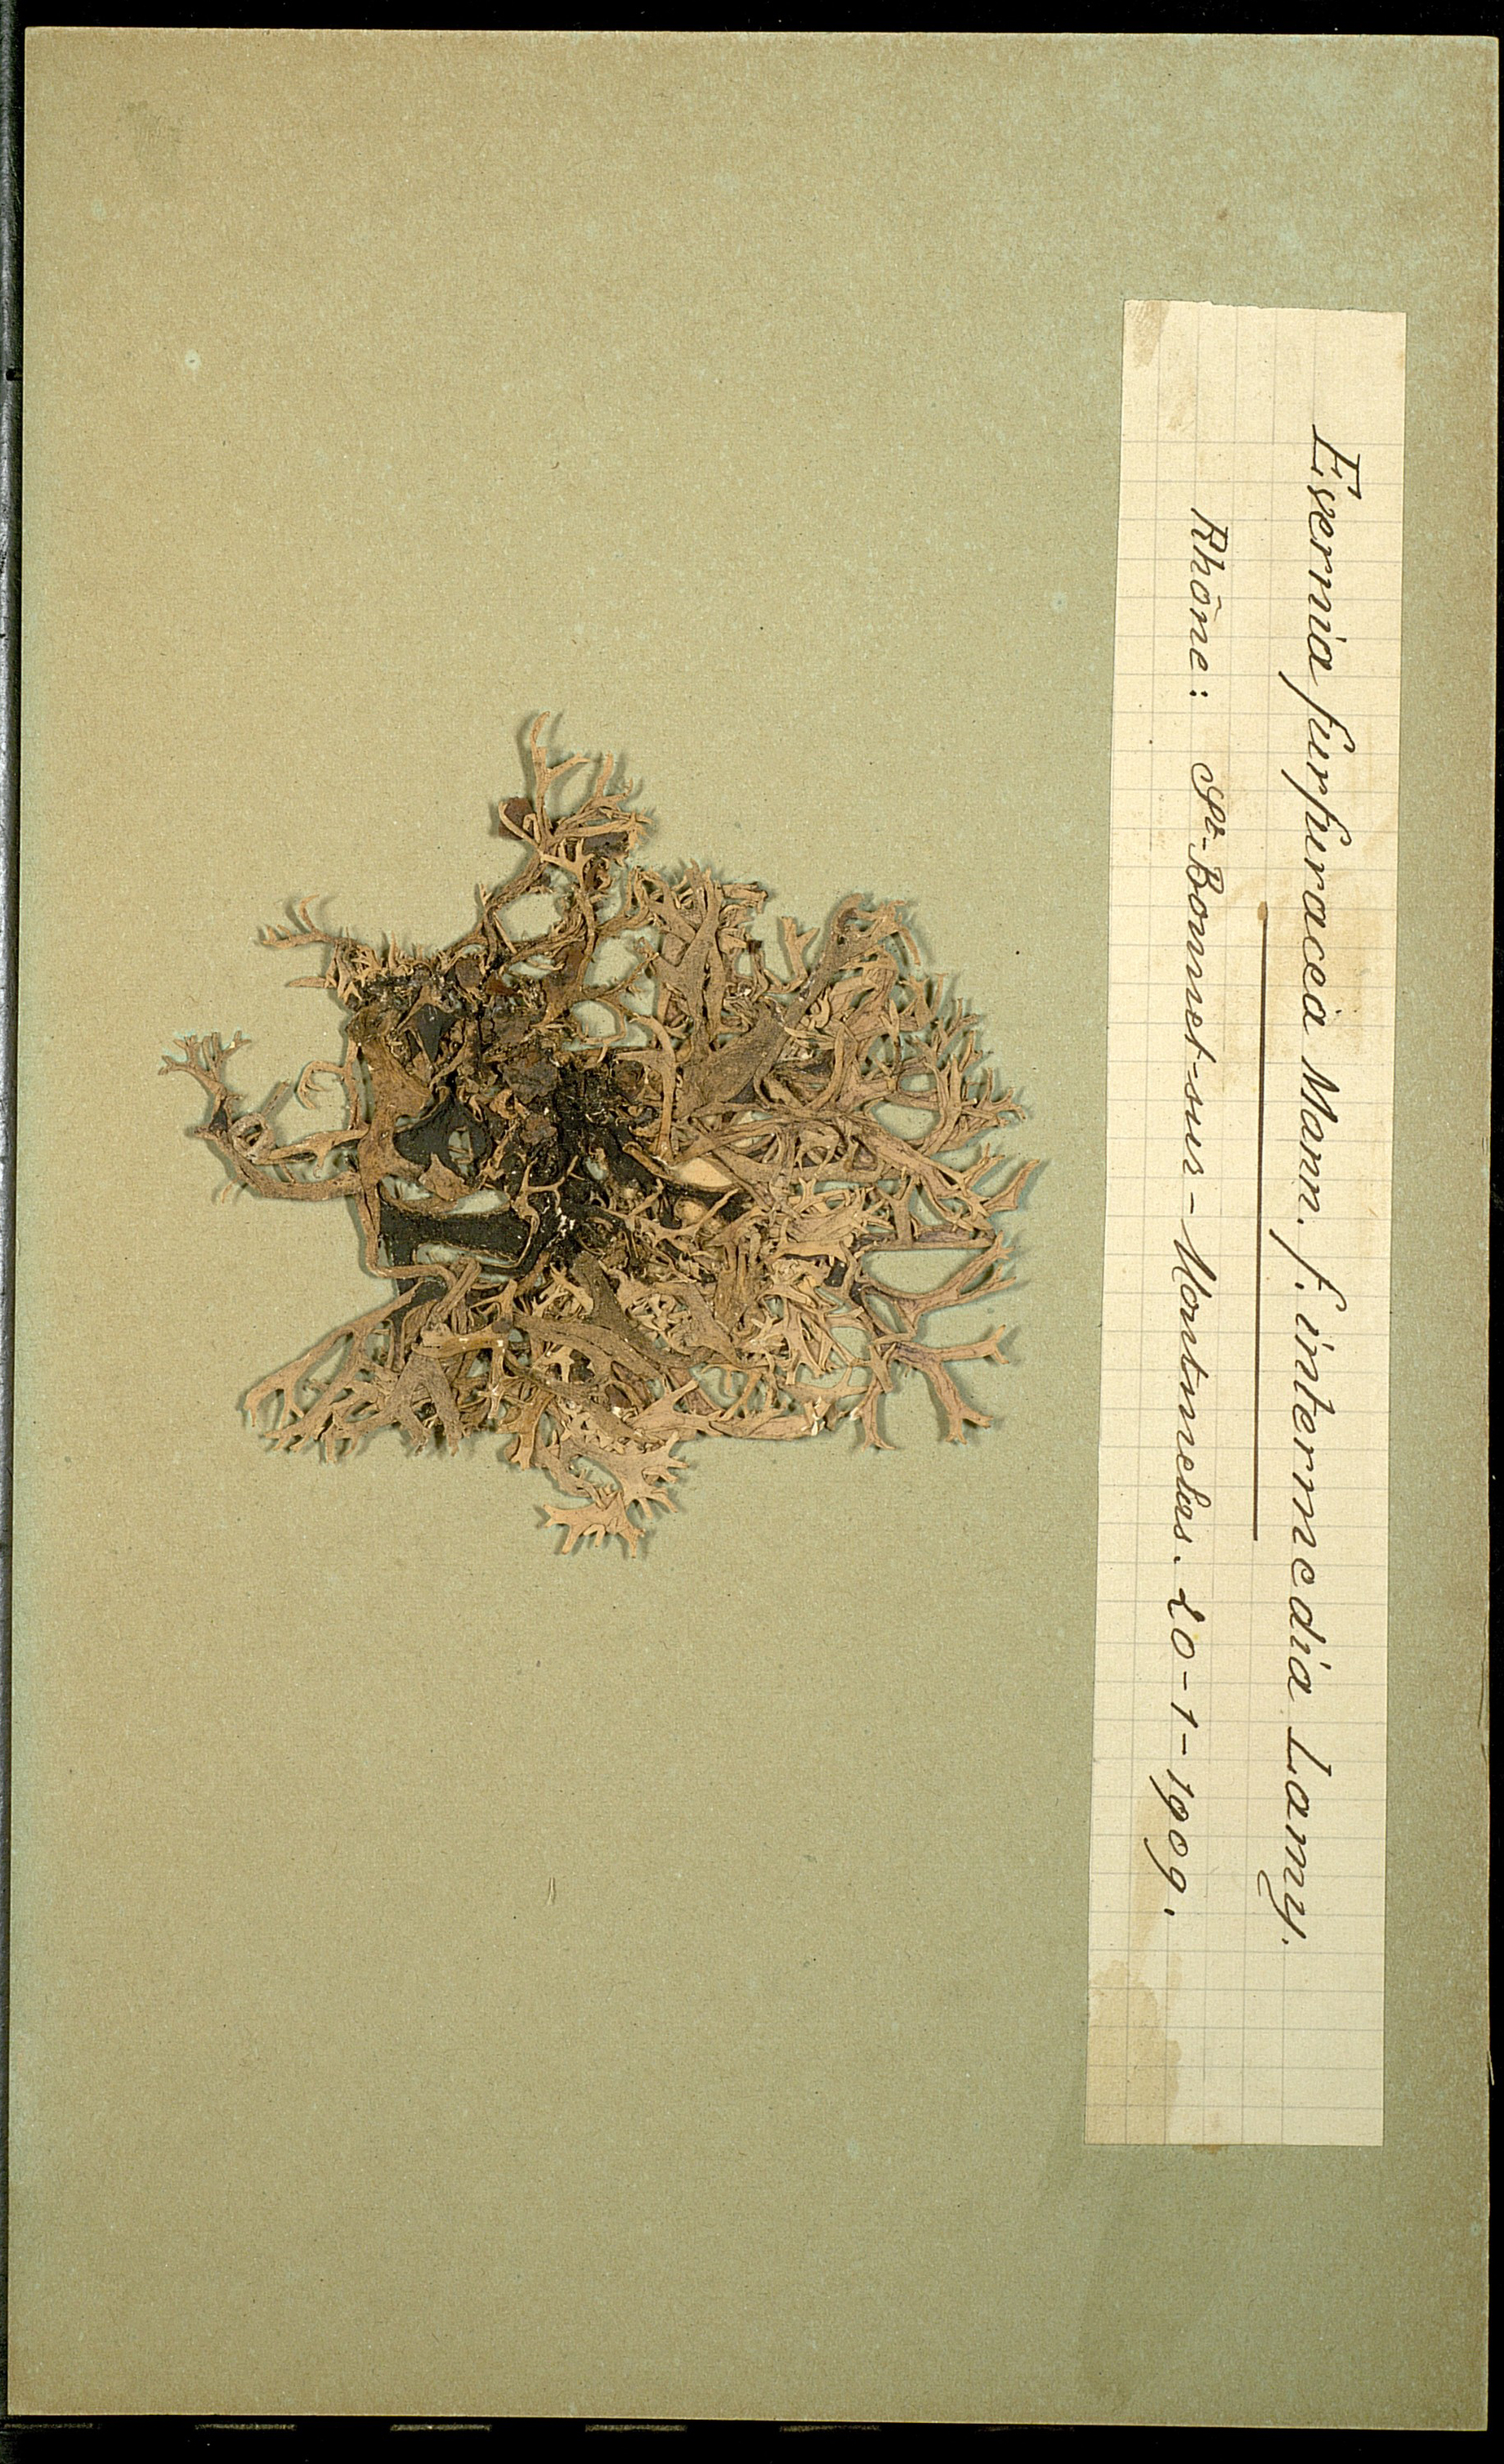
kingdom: Fungi
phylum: Ascomycota
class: Lecanoromycetes
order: Lecanorales
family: Parmeliaceae
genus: Pseudevernia
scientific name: Pseudevernia furfuracea
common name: Tree moss
